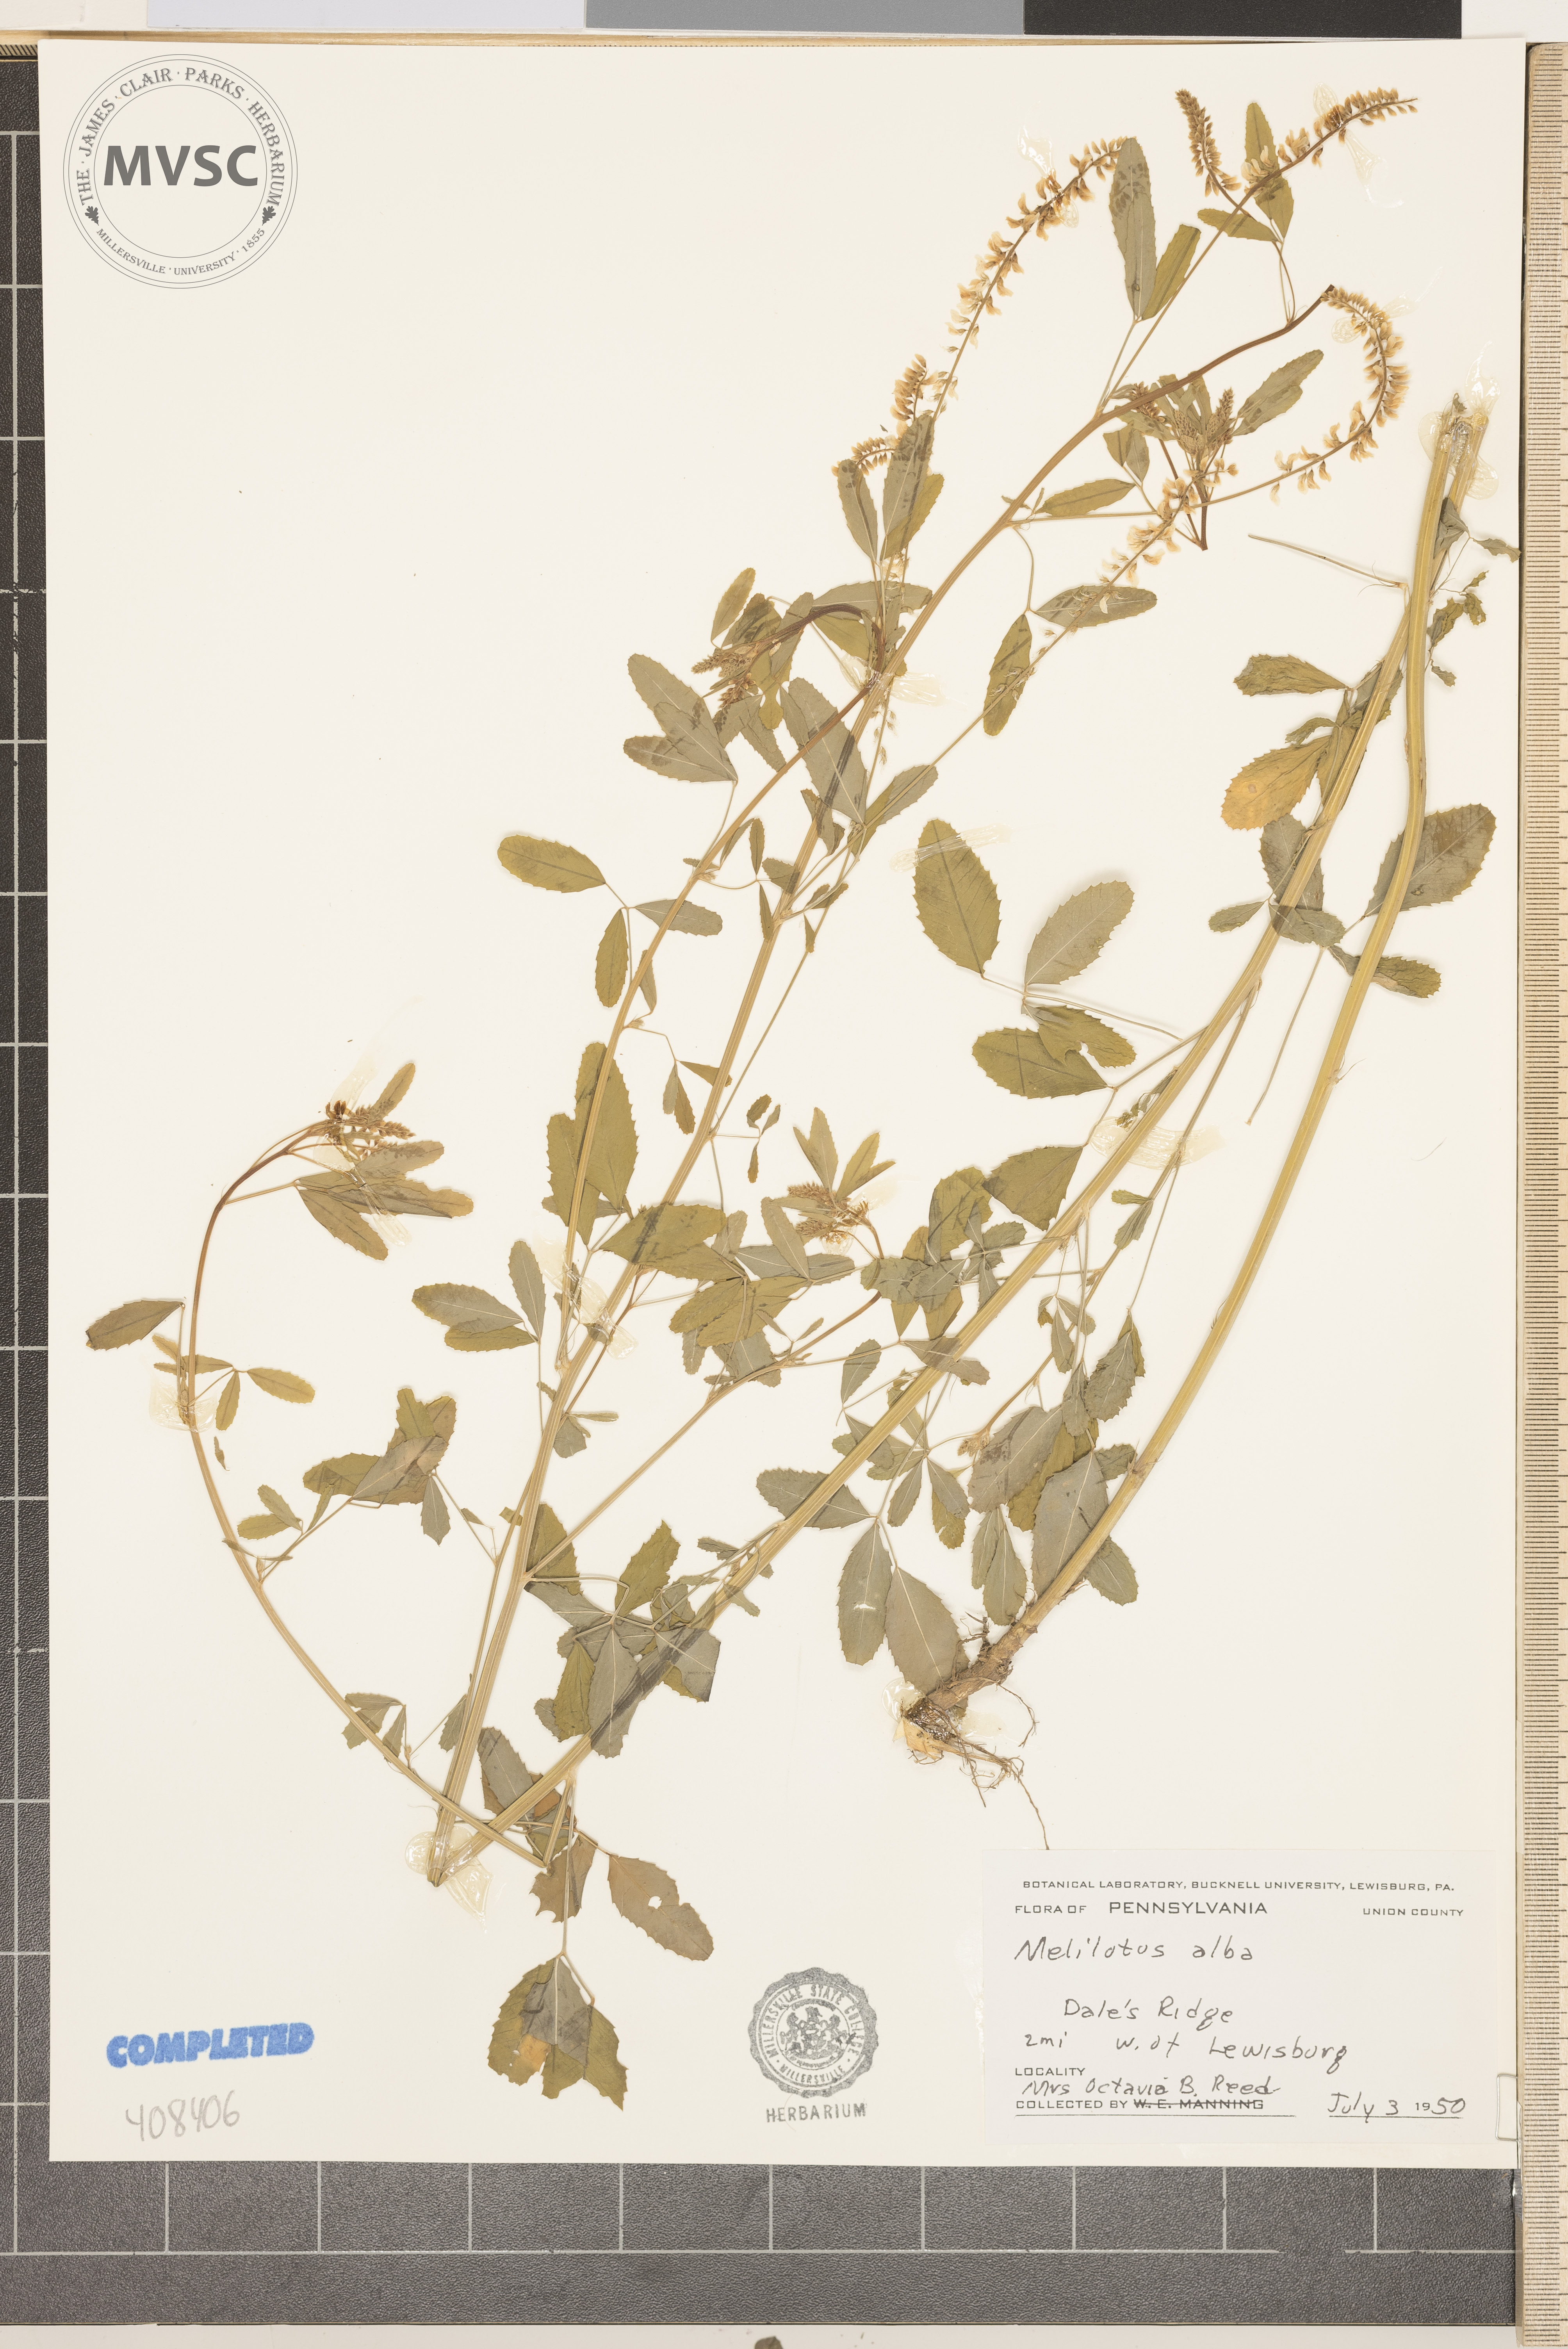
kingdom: Plantae
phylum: Tracheophyta
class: Magnoliopsida
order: Fabales
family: Fabaceae
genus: Melilotus
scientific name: Melilotus officinalis
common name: Sweetclover
